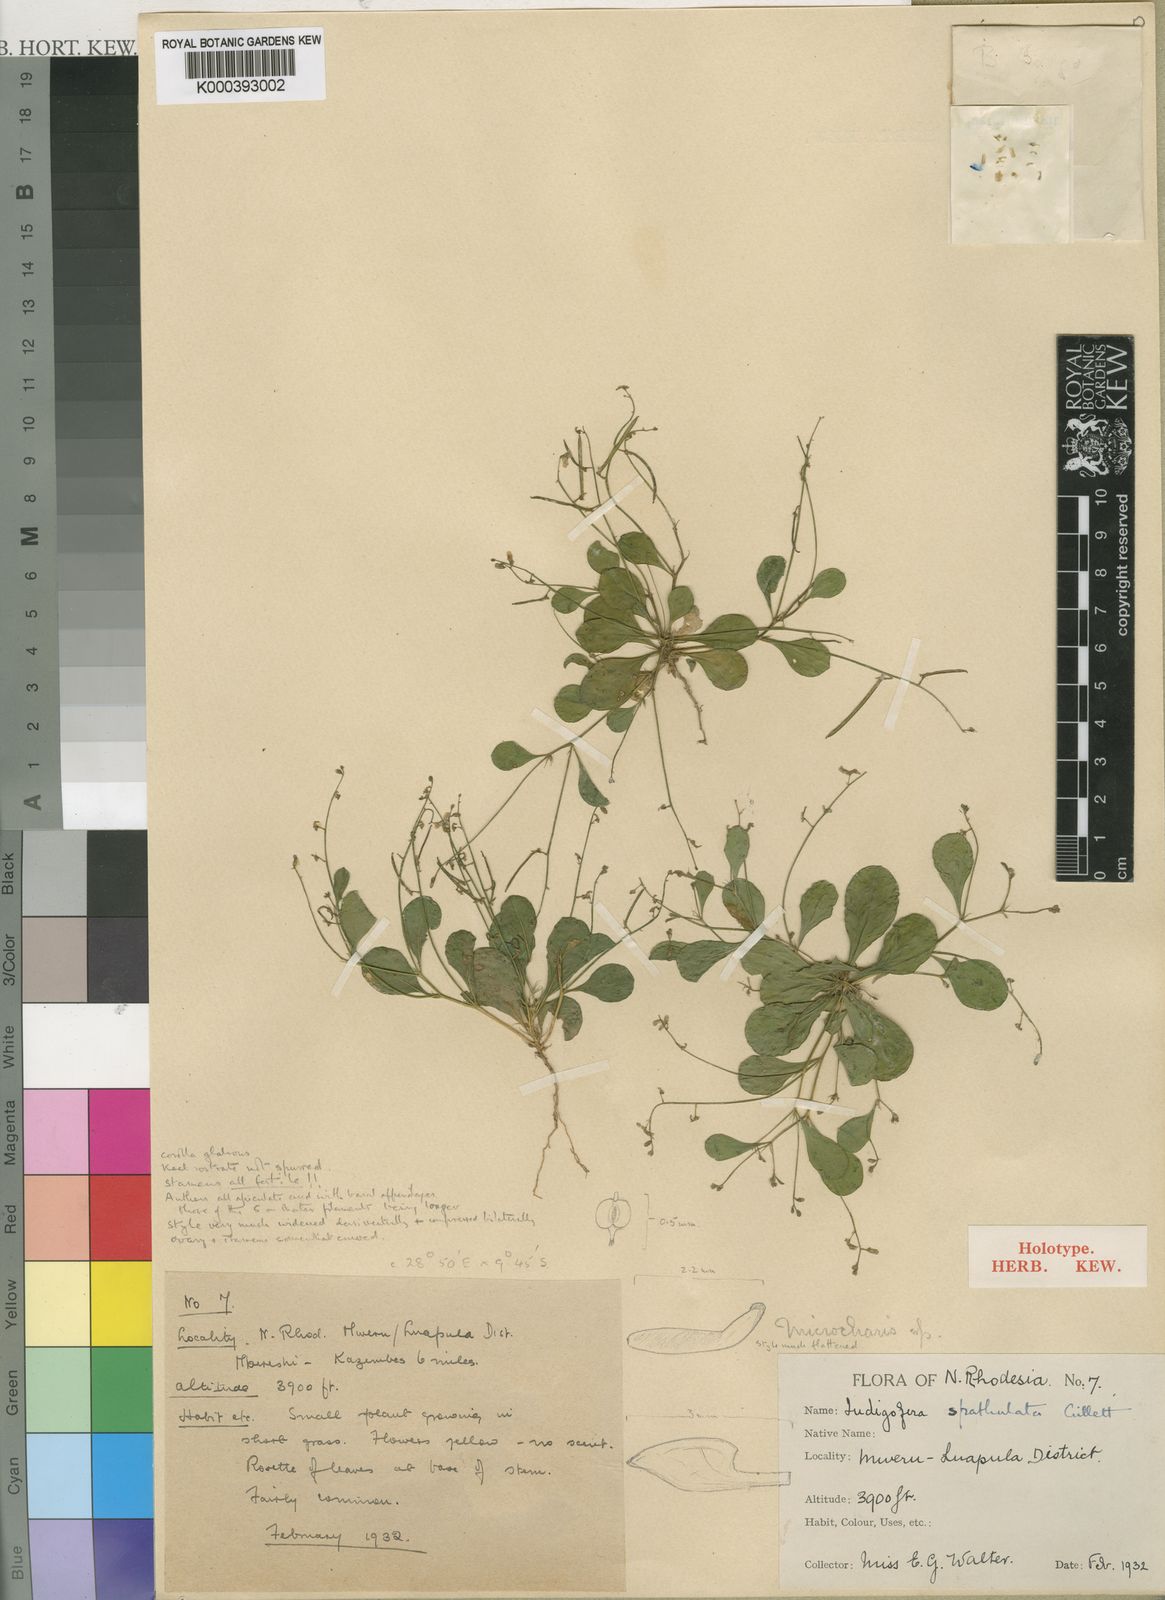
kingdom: Plantae
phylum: Tracheophyta
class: Magnoliopsida
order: Fabales
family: Fabaceae
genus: Microcharis
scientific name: Microcharis spathulata
